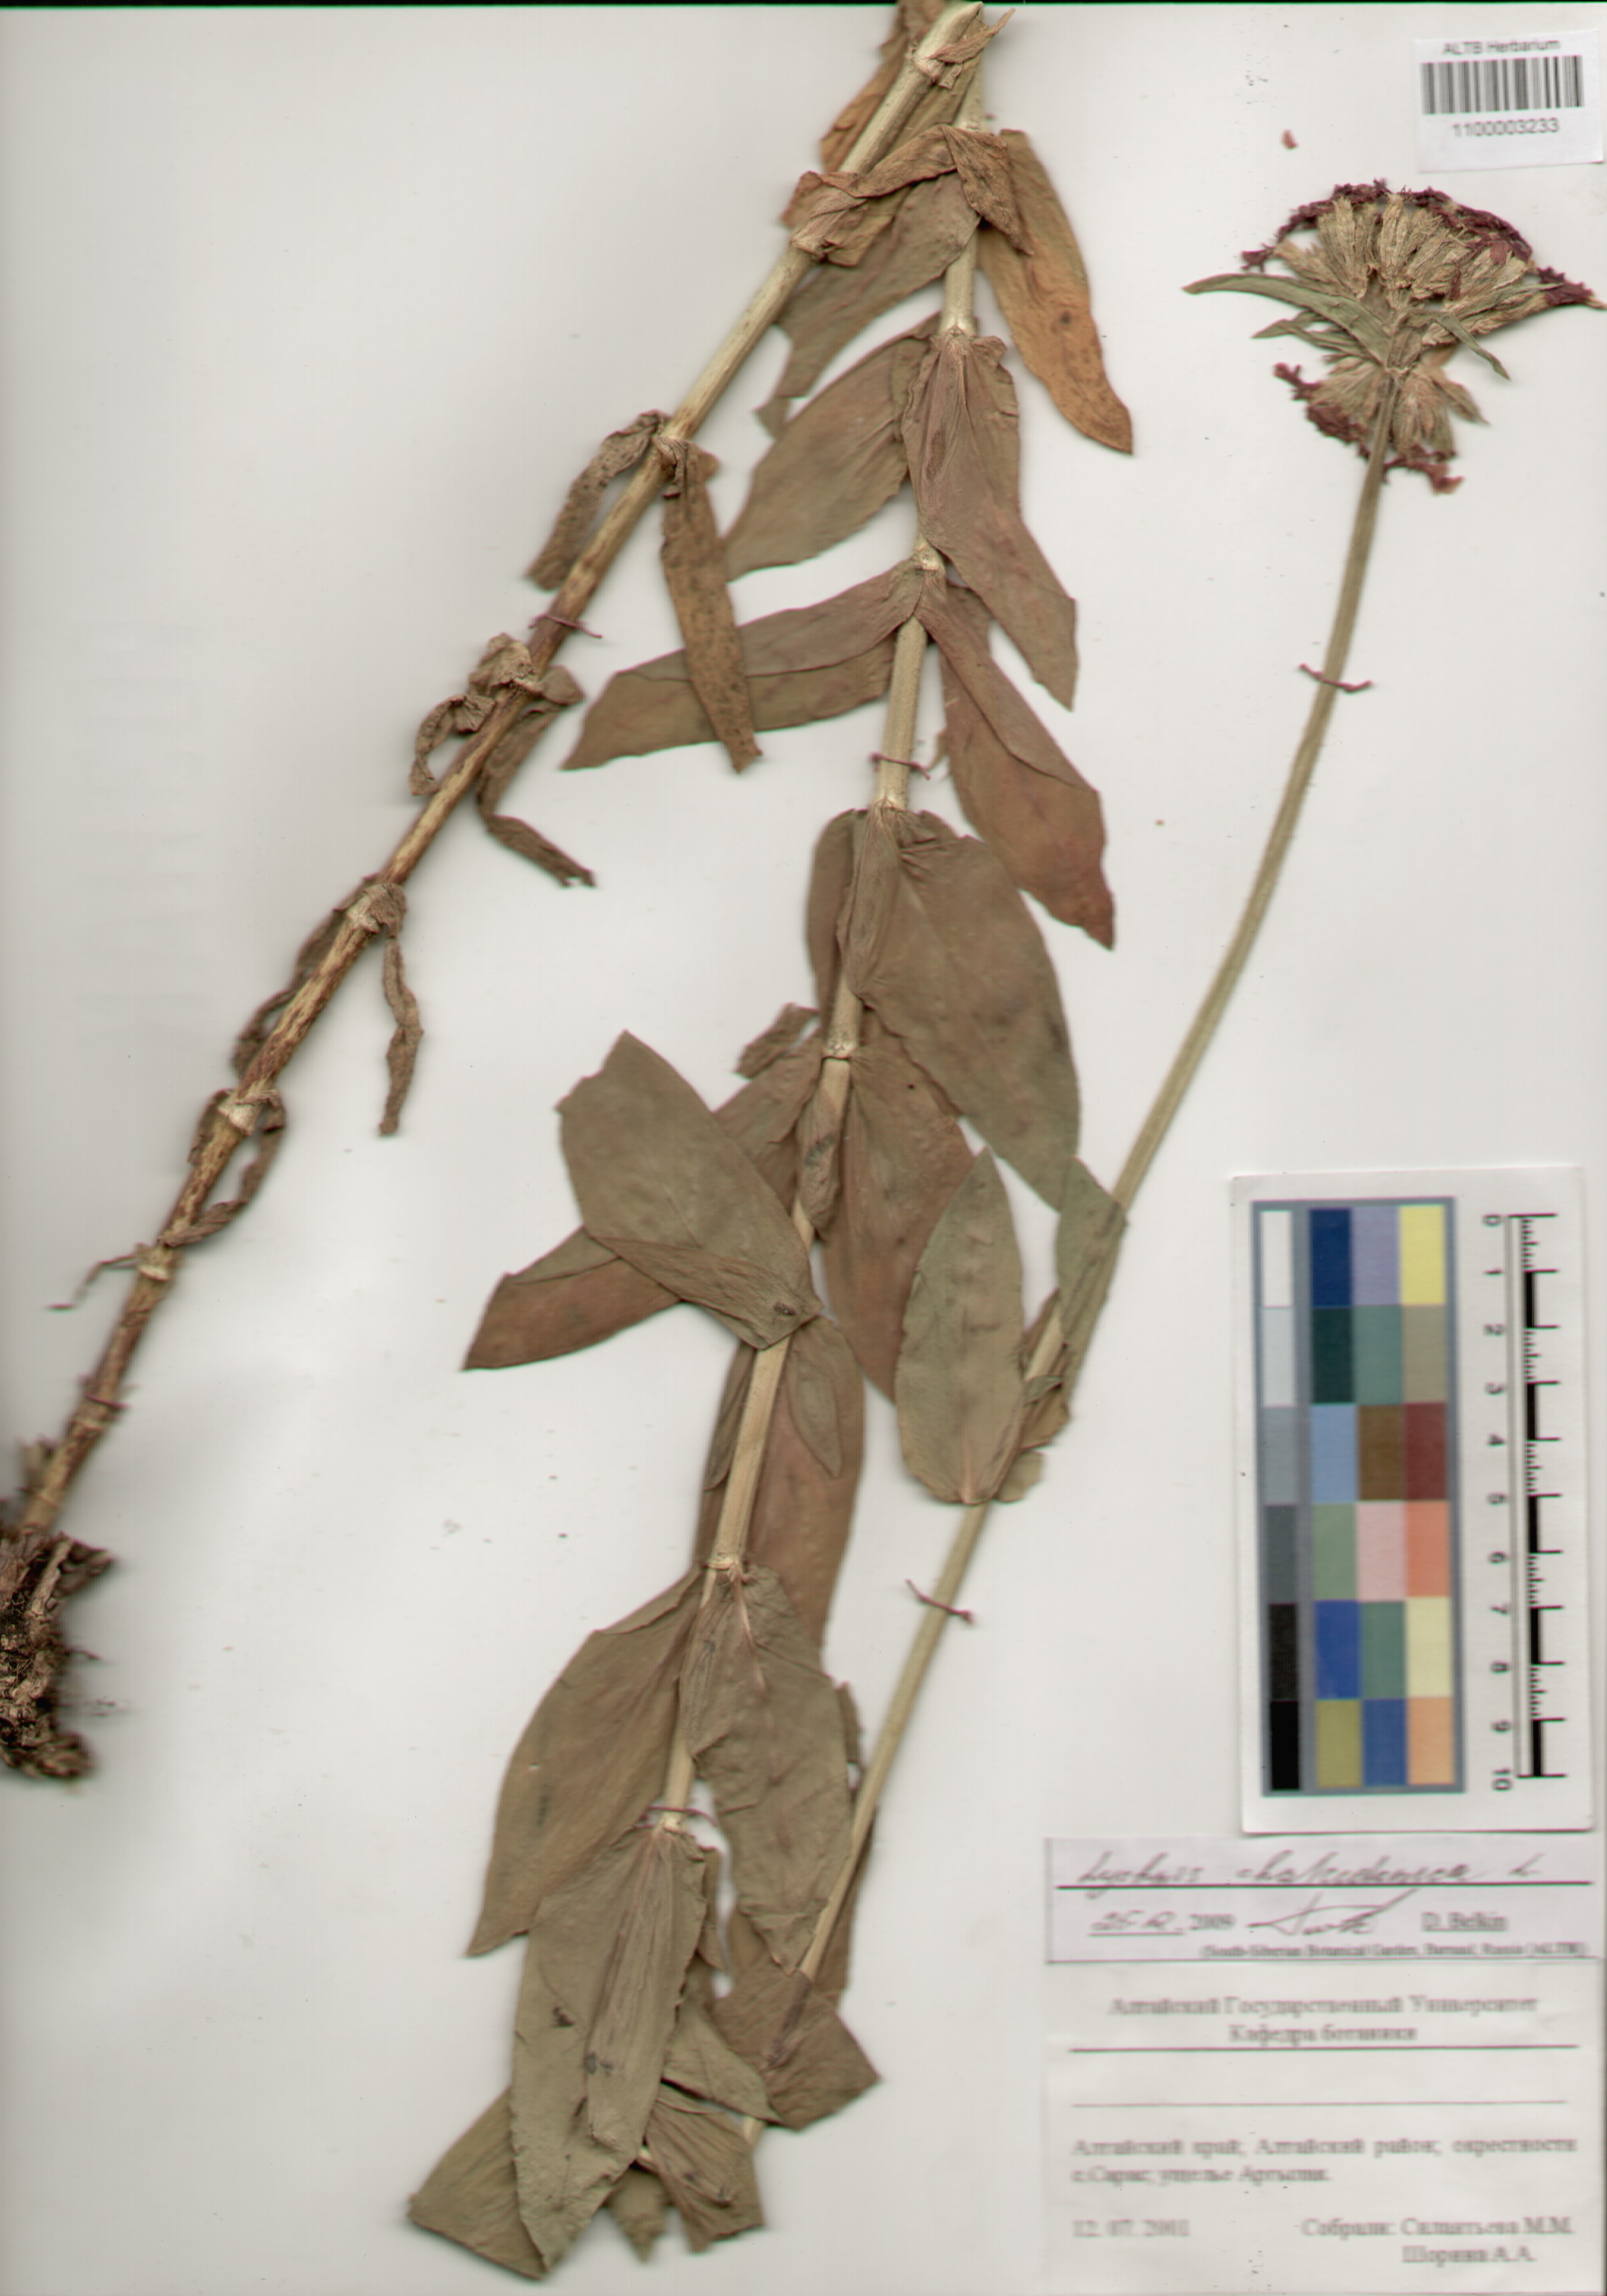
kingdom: Plantae
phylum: Tracheophyta
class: Magnoliopsida
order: Caryophyllales
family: Caryophyllaceae
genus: Silene
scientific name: Silene chalcedonica
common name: Maltese-cross
